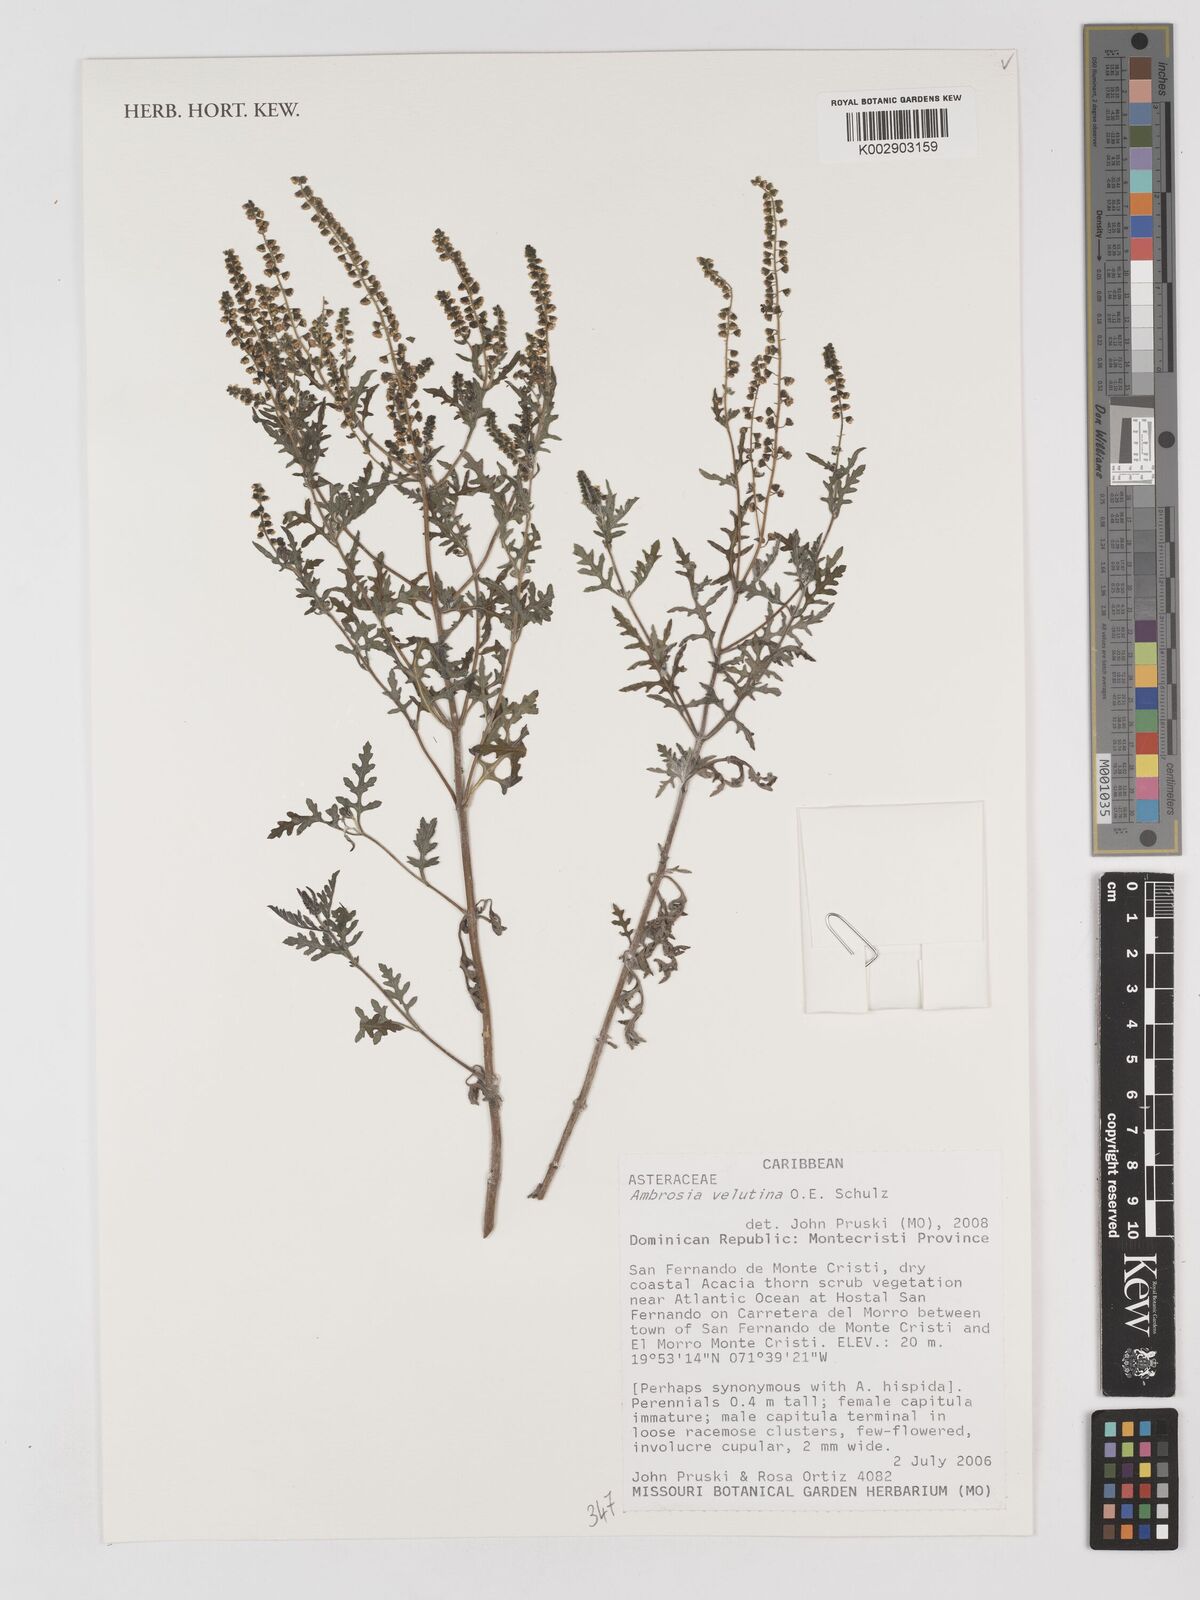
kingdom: Plantae
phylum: Tracheophyta
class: Magnoliopsida
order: Asterales
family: Asteraceae
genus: Ambrosia
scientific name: Ambrosia velutina
